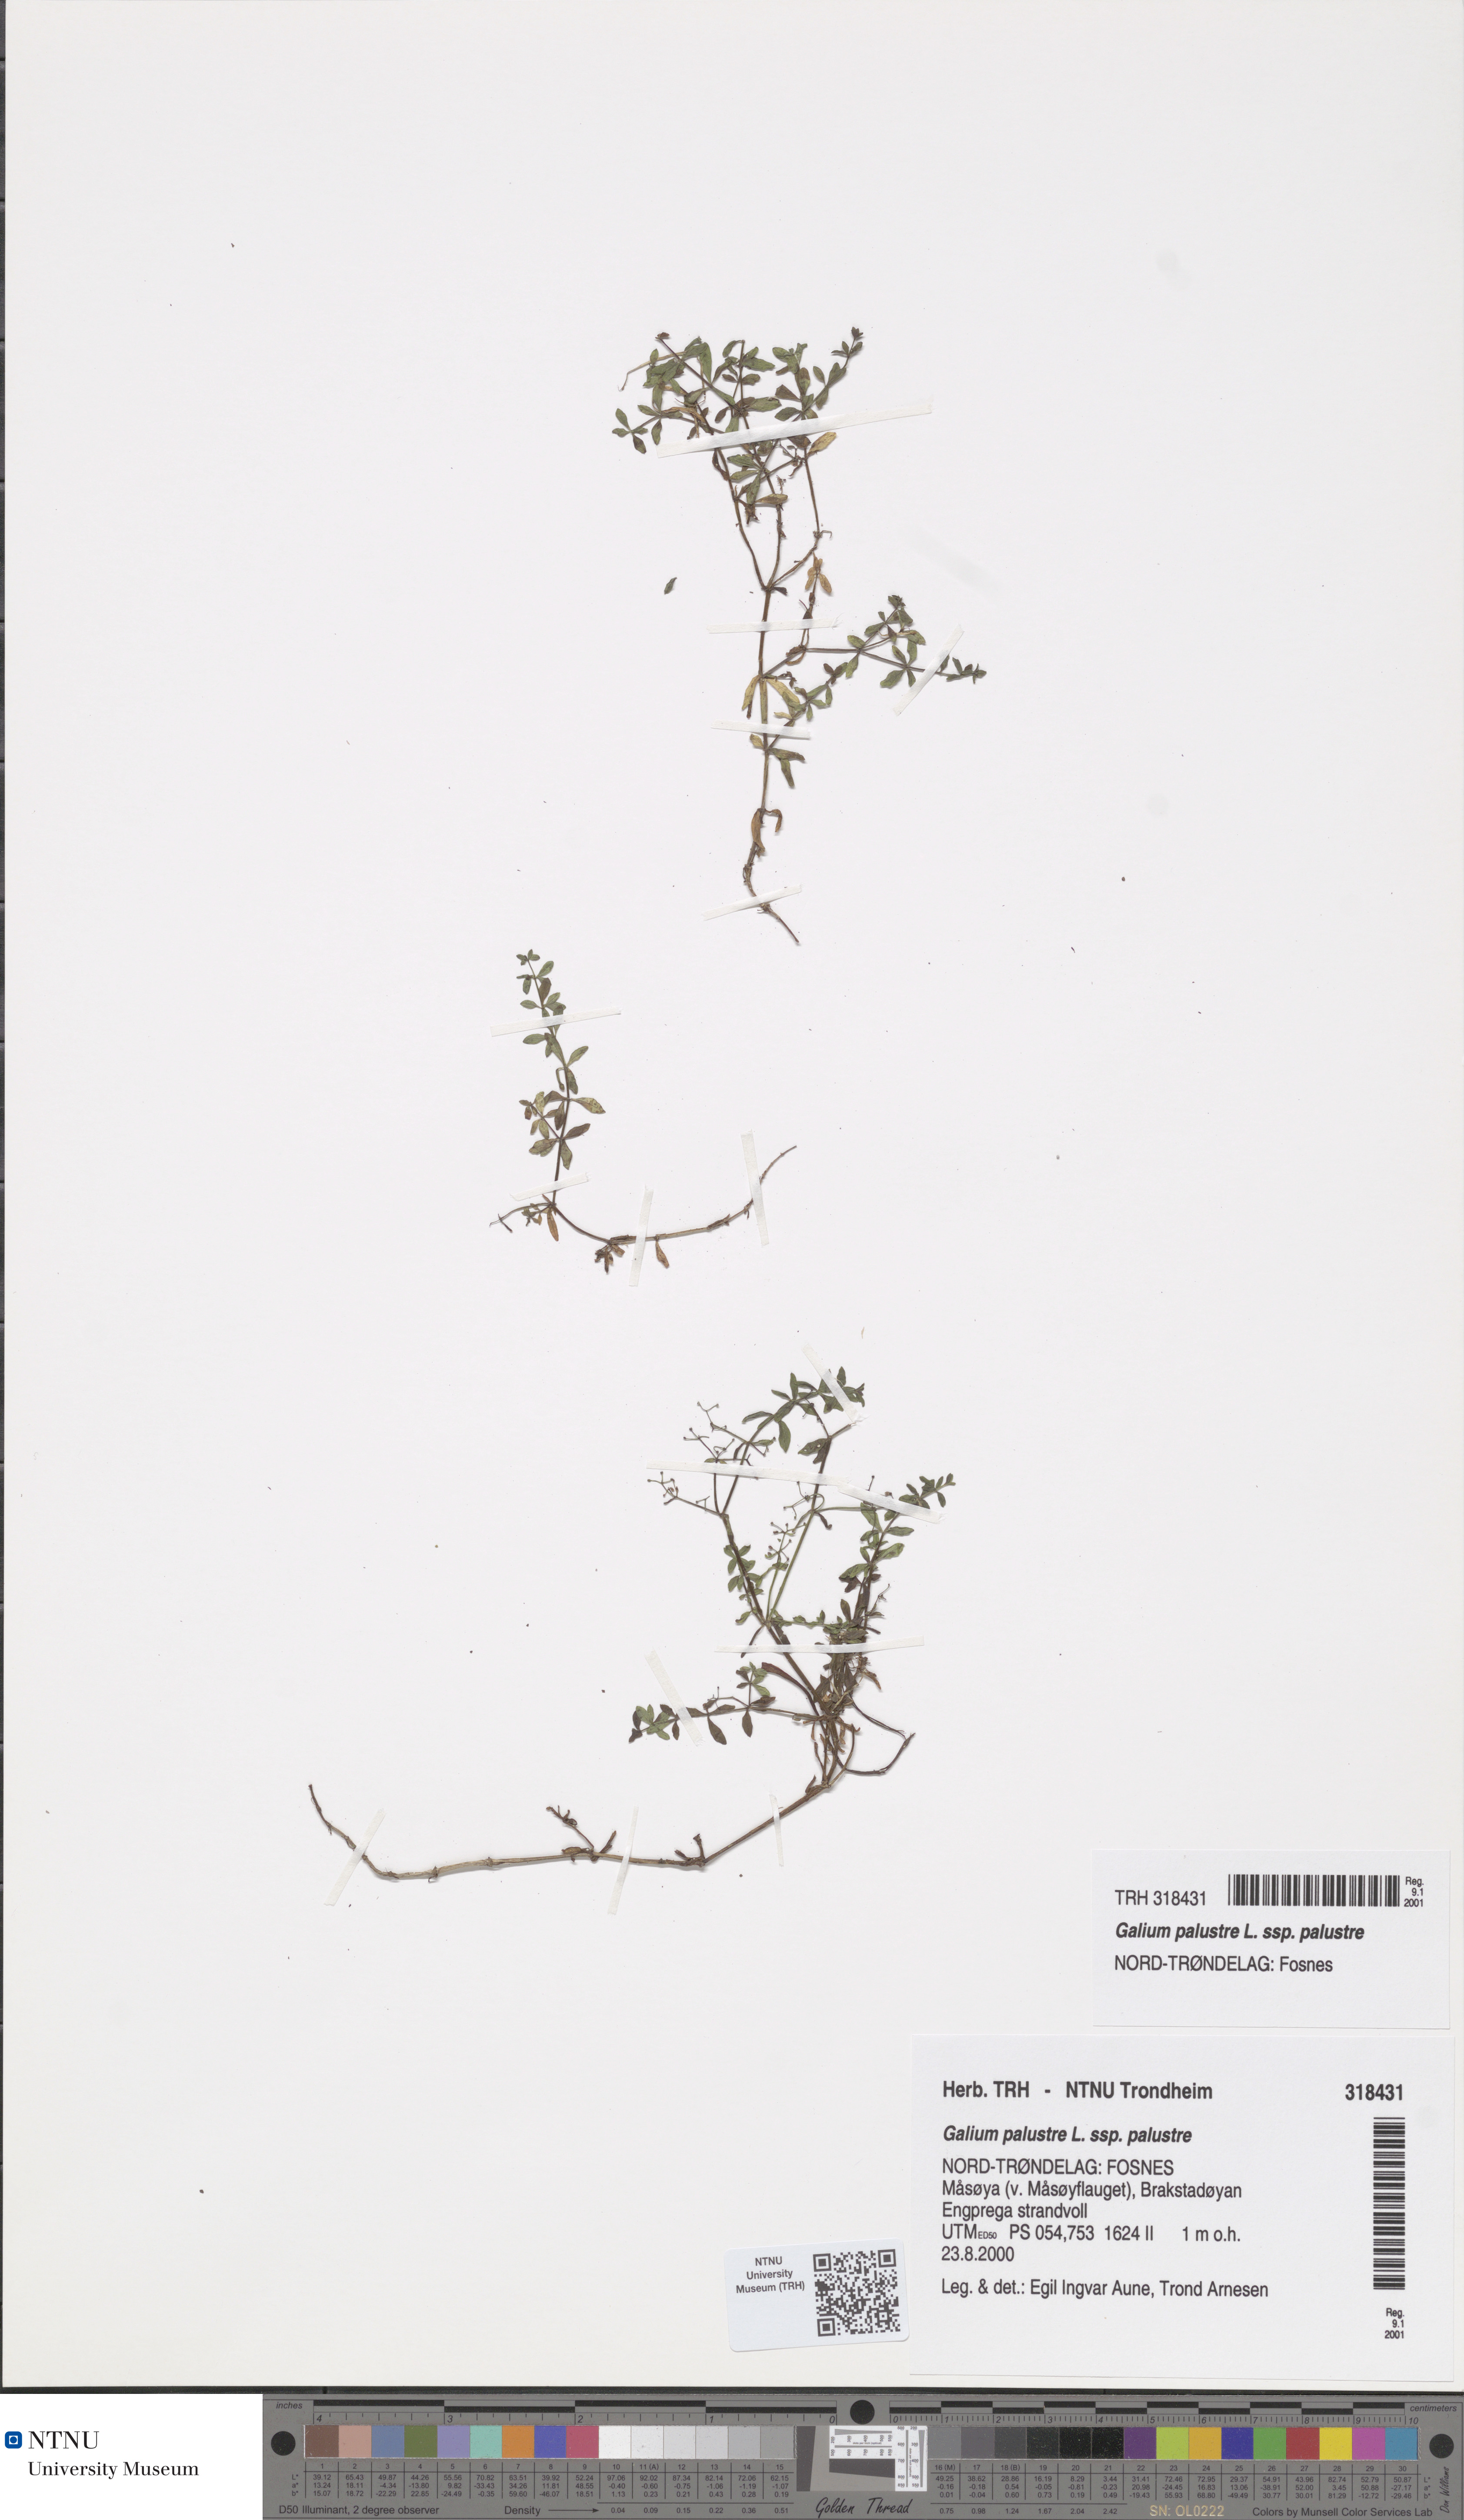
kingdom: Plantae
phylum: Tracheophyta
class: Magnoliopsida
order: Gentianales
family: Rubiaceae
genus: Galium
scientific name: Galium palustre
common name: Common marsh-bedstraw
